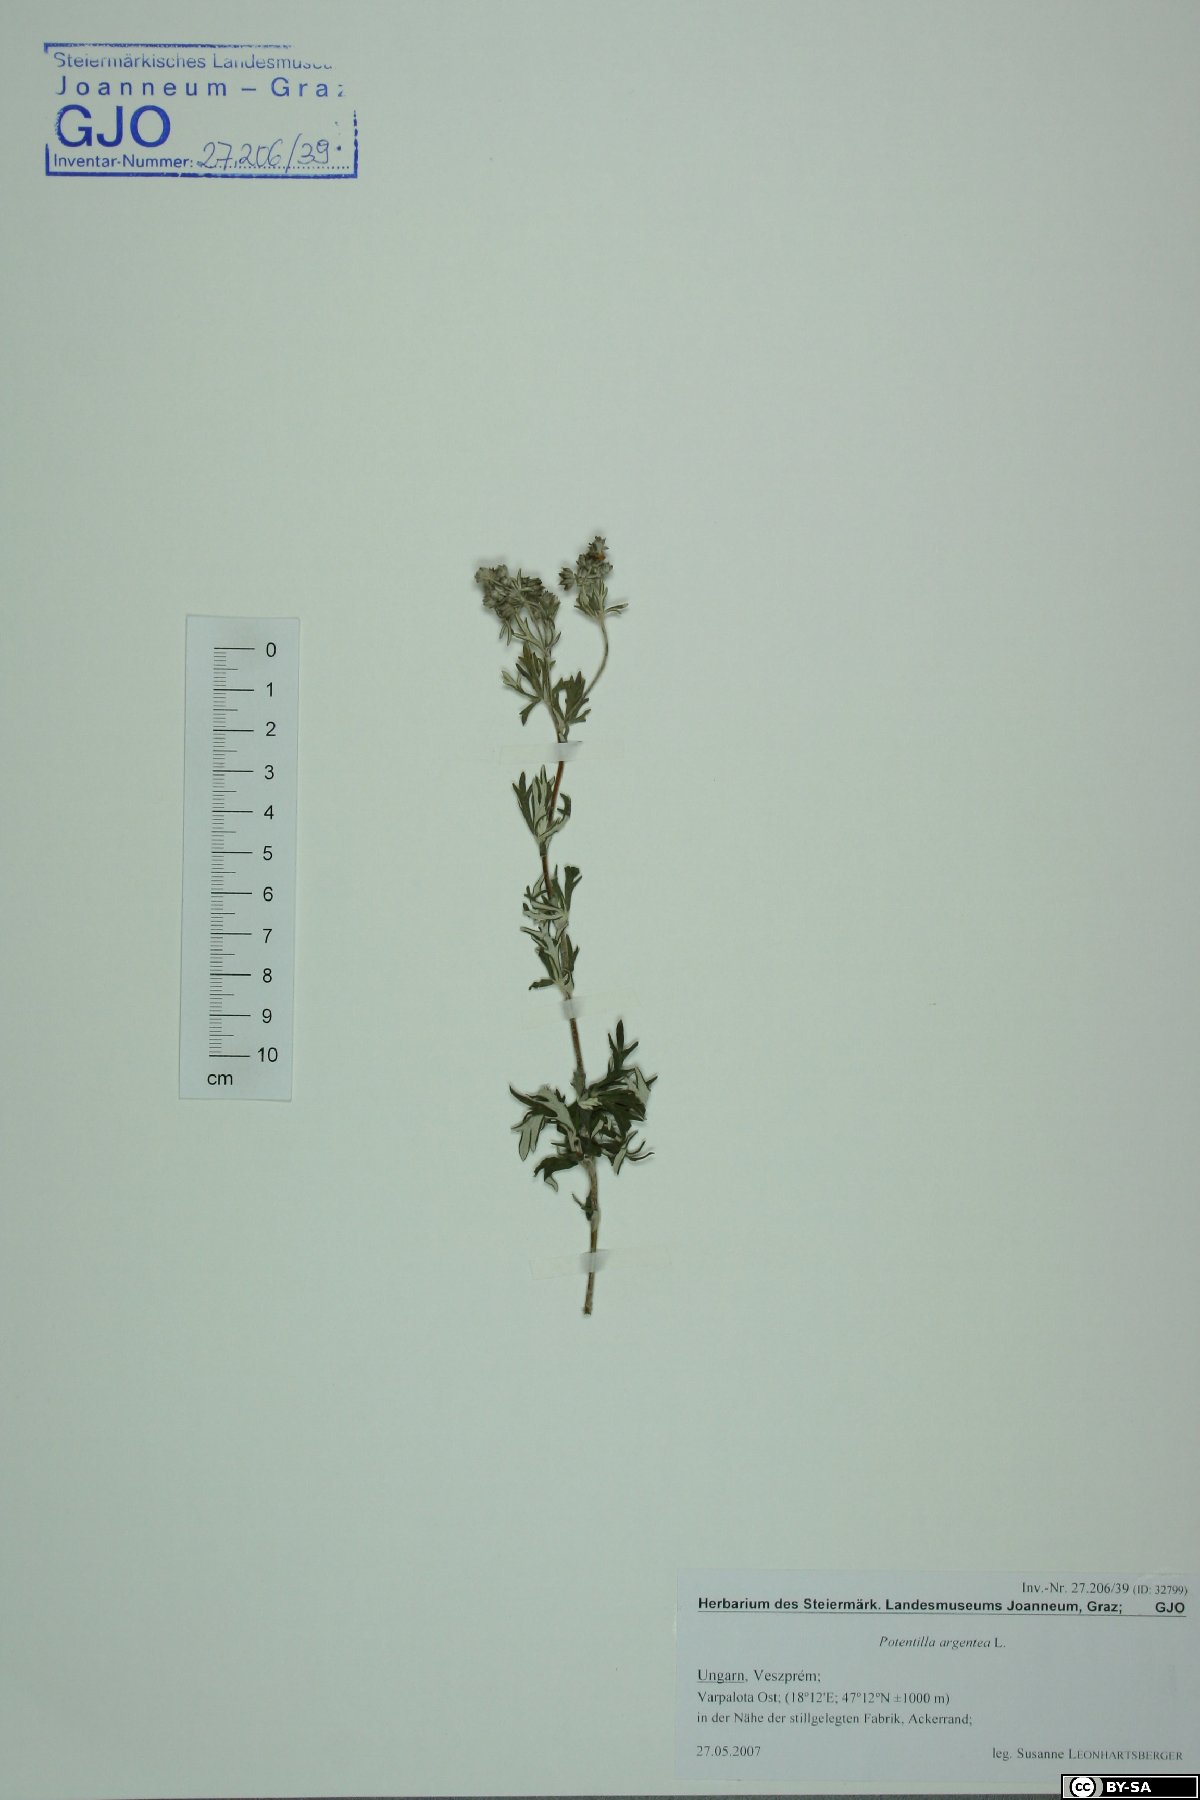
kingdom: Plantae
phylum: Tracheophyta
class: Magnoliopsida
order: Rosales
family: Rosaceae
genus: Potentilla
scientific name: Potentilla argentea
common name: Hoary cinquefoil
